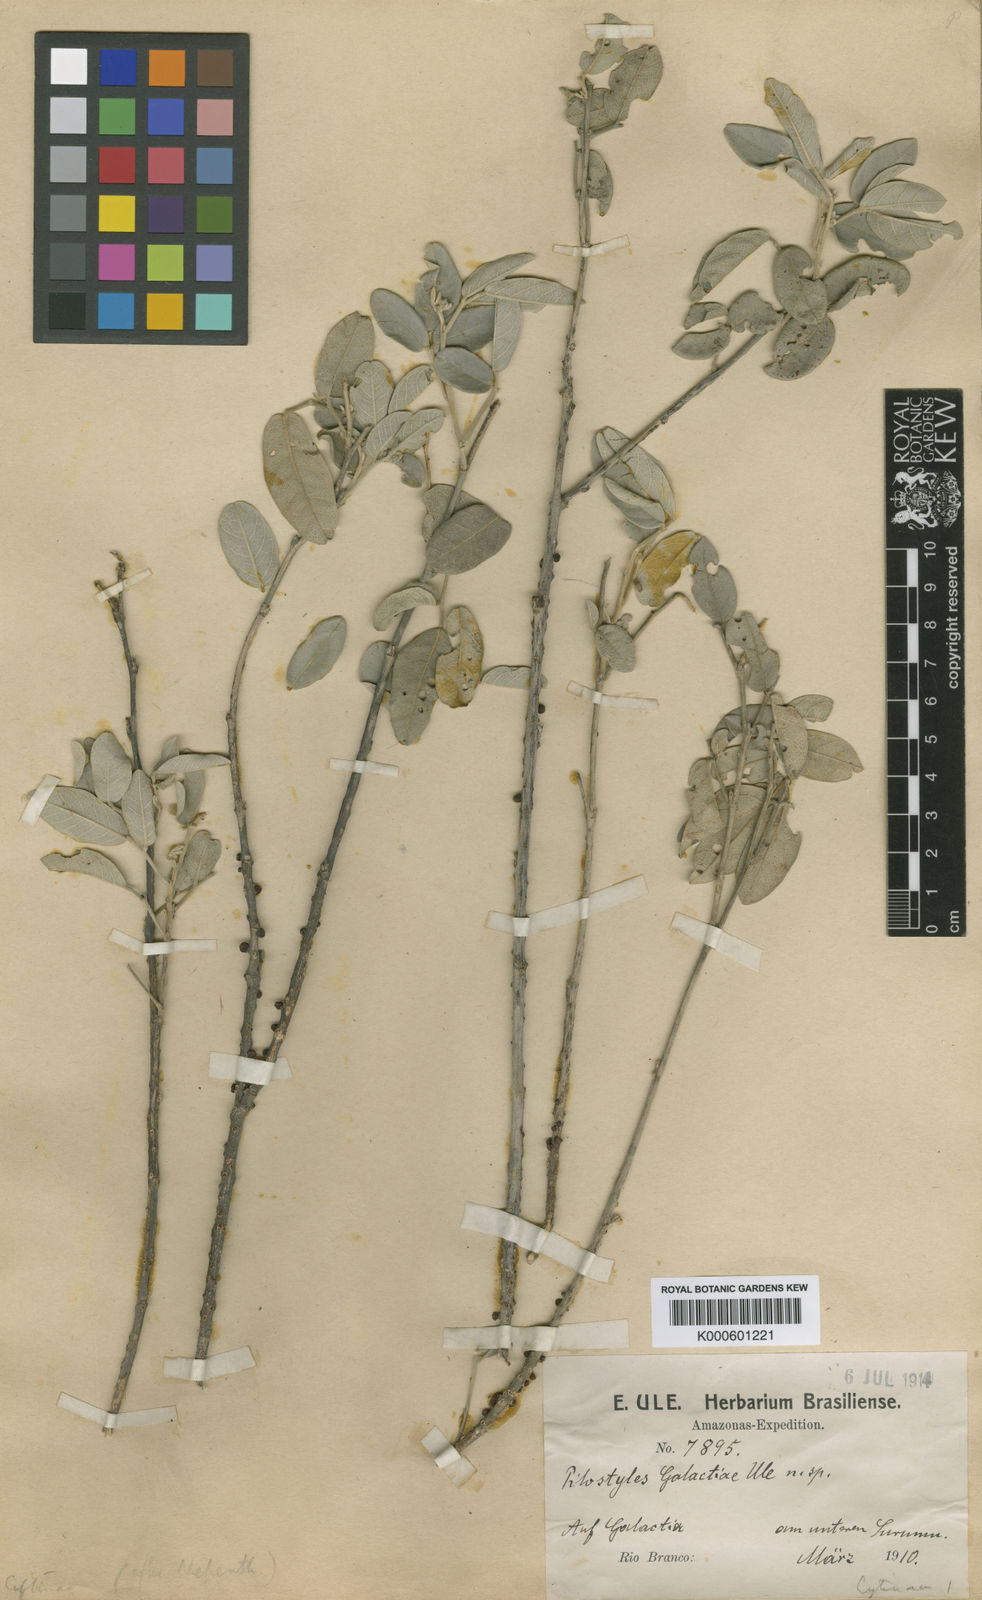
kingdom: Plantae
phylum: Tracheophyta
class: Magnoliopsida
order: Cucurbitales
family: Apodanthaceae
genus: Pilostyles
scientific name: Pilostyles blanchetii
